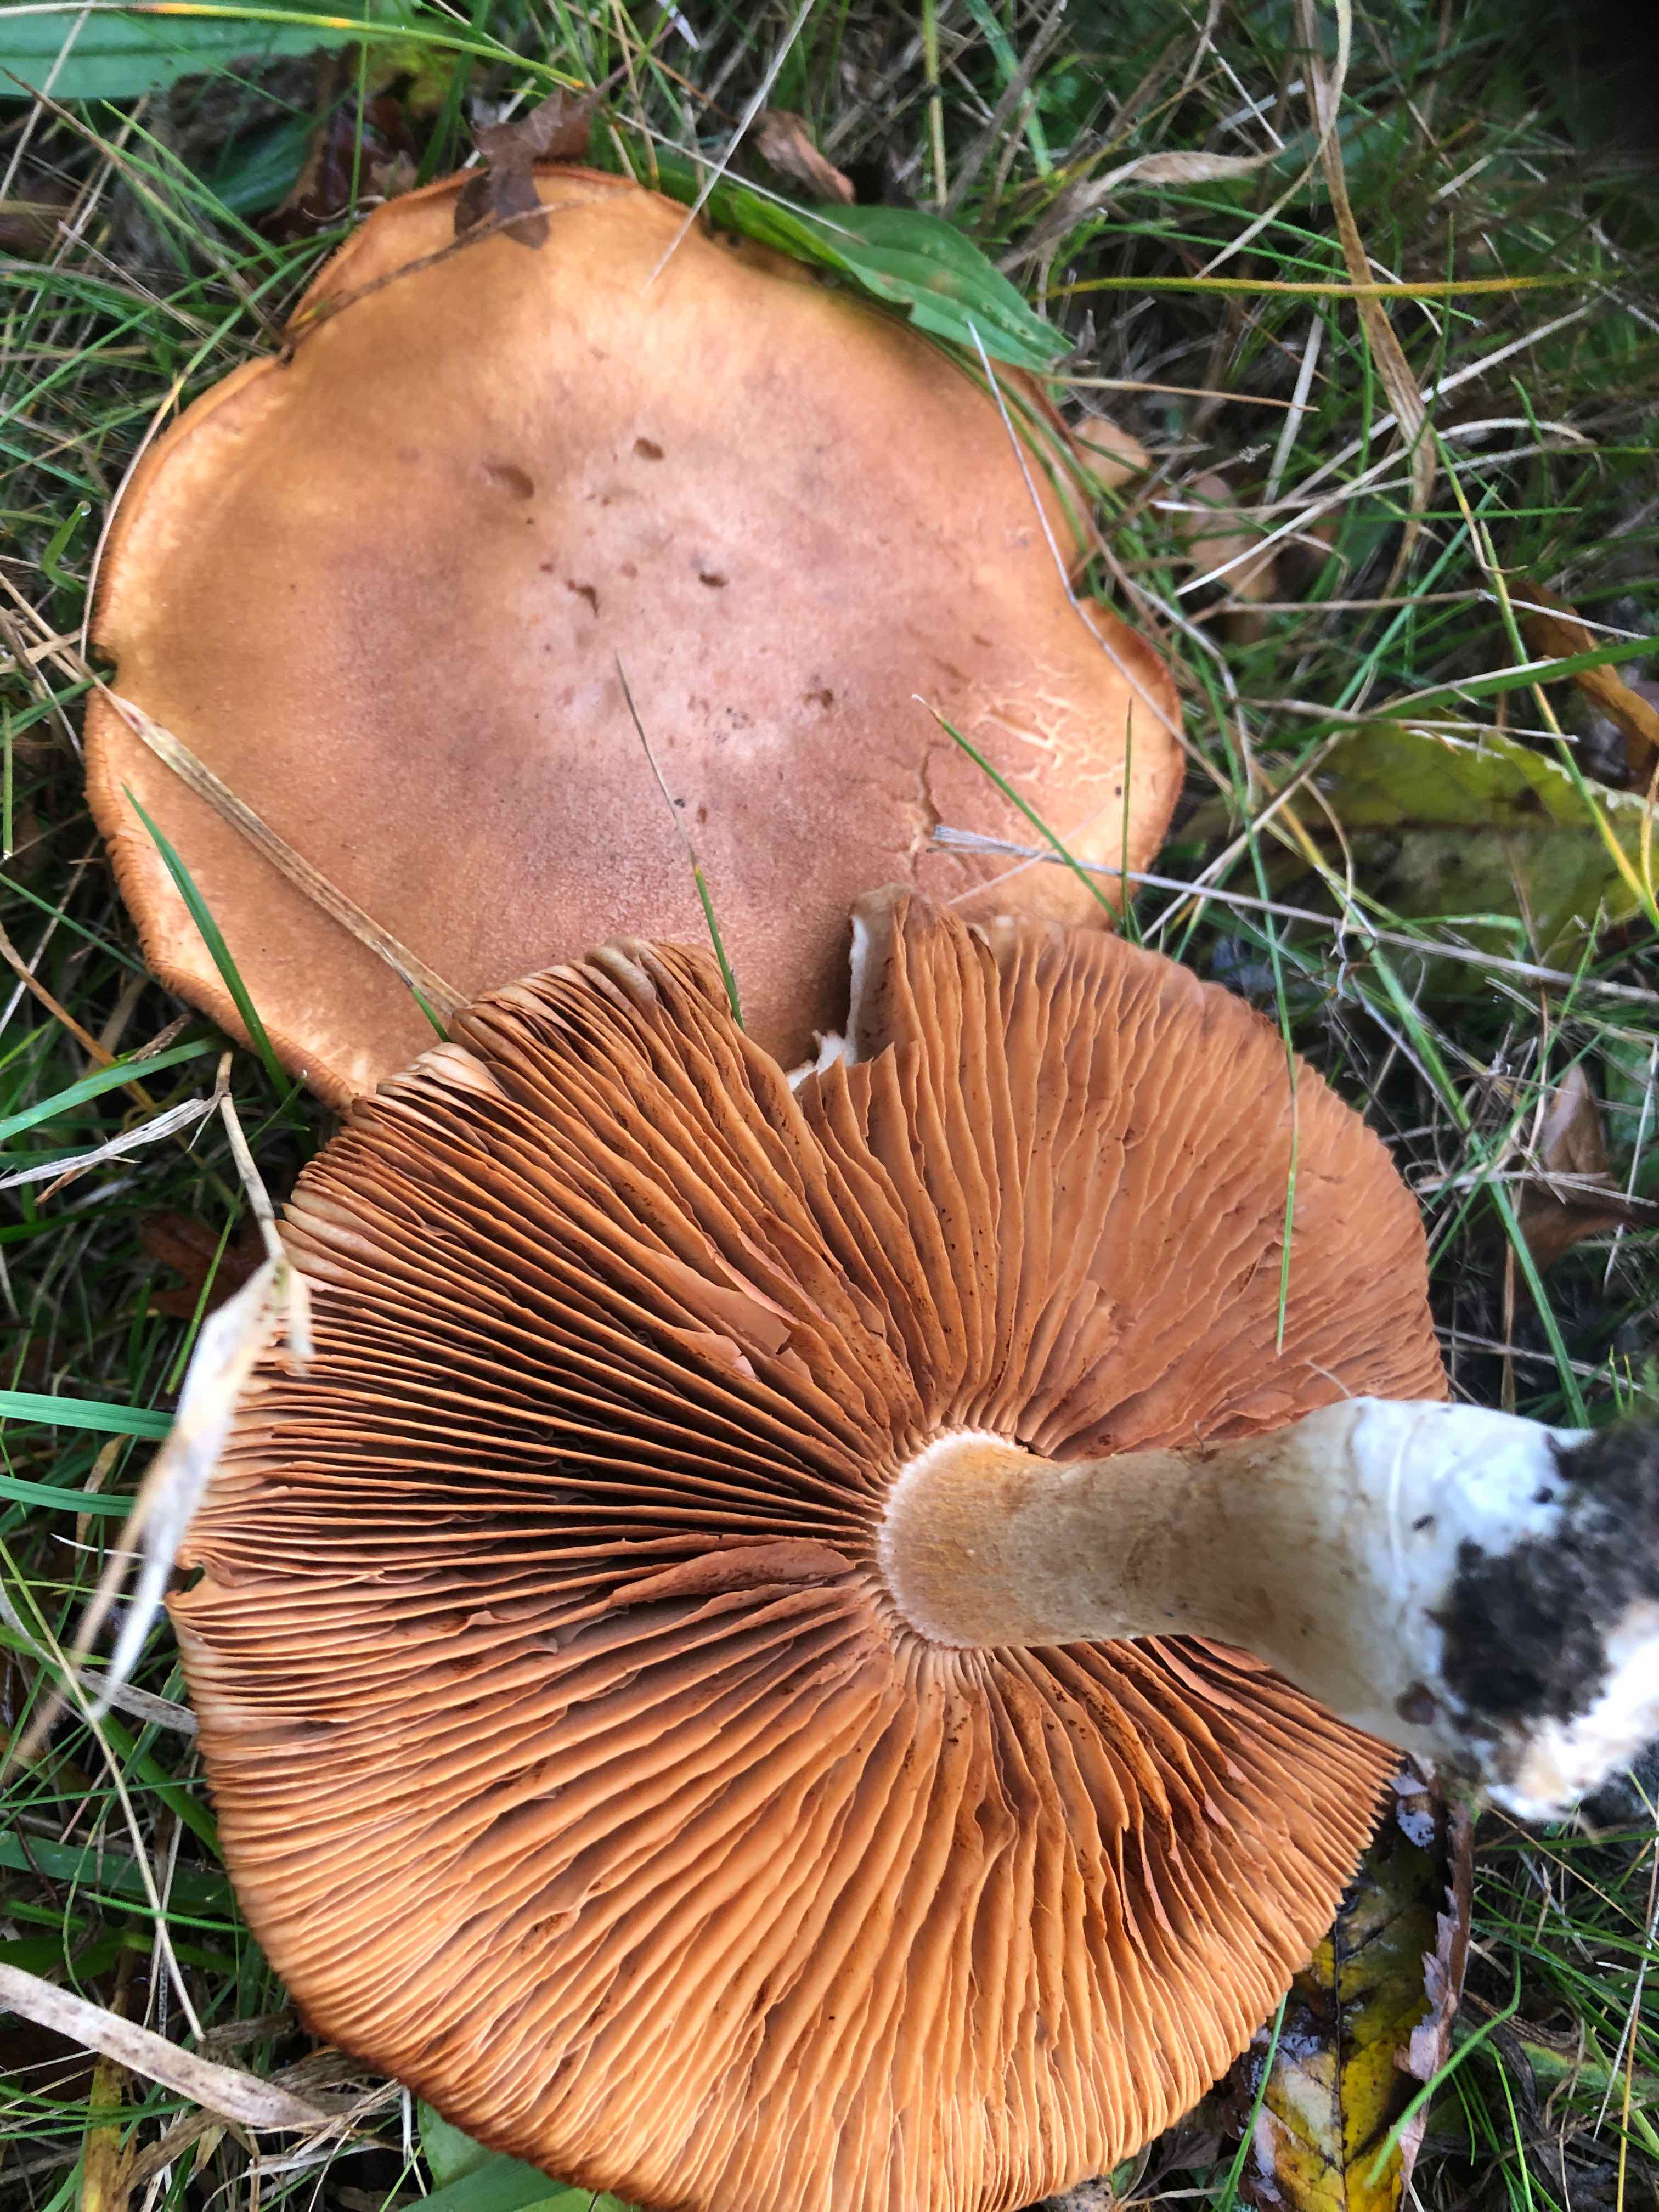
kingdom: Fungi
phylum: Basidiomycota
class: Agaricomycetes
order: Agaricales
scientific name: Agaricales
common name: champignonordenen
